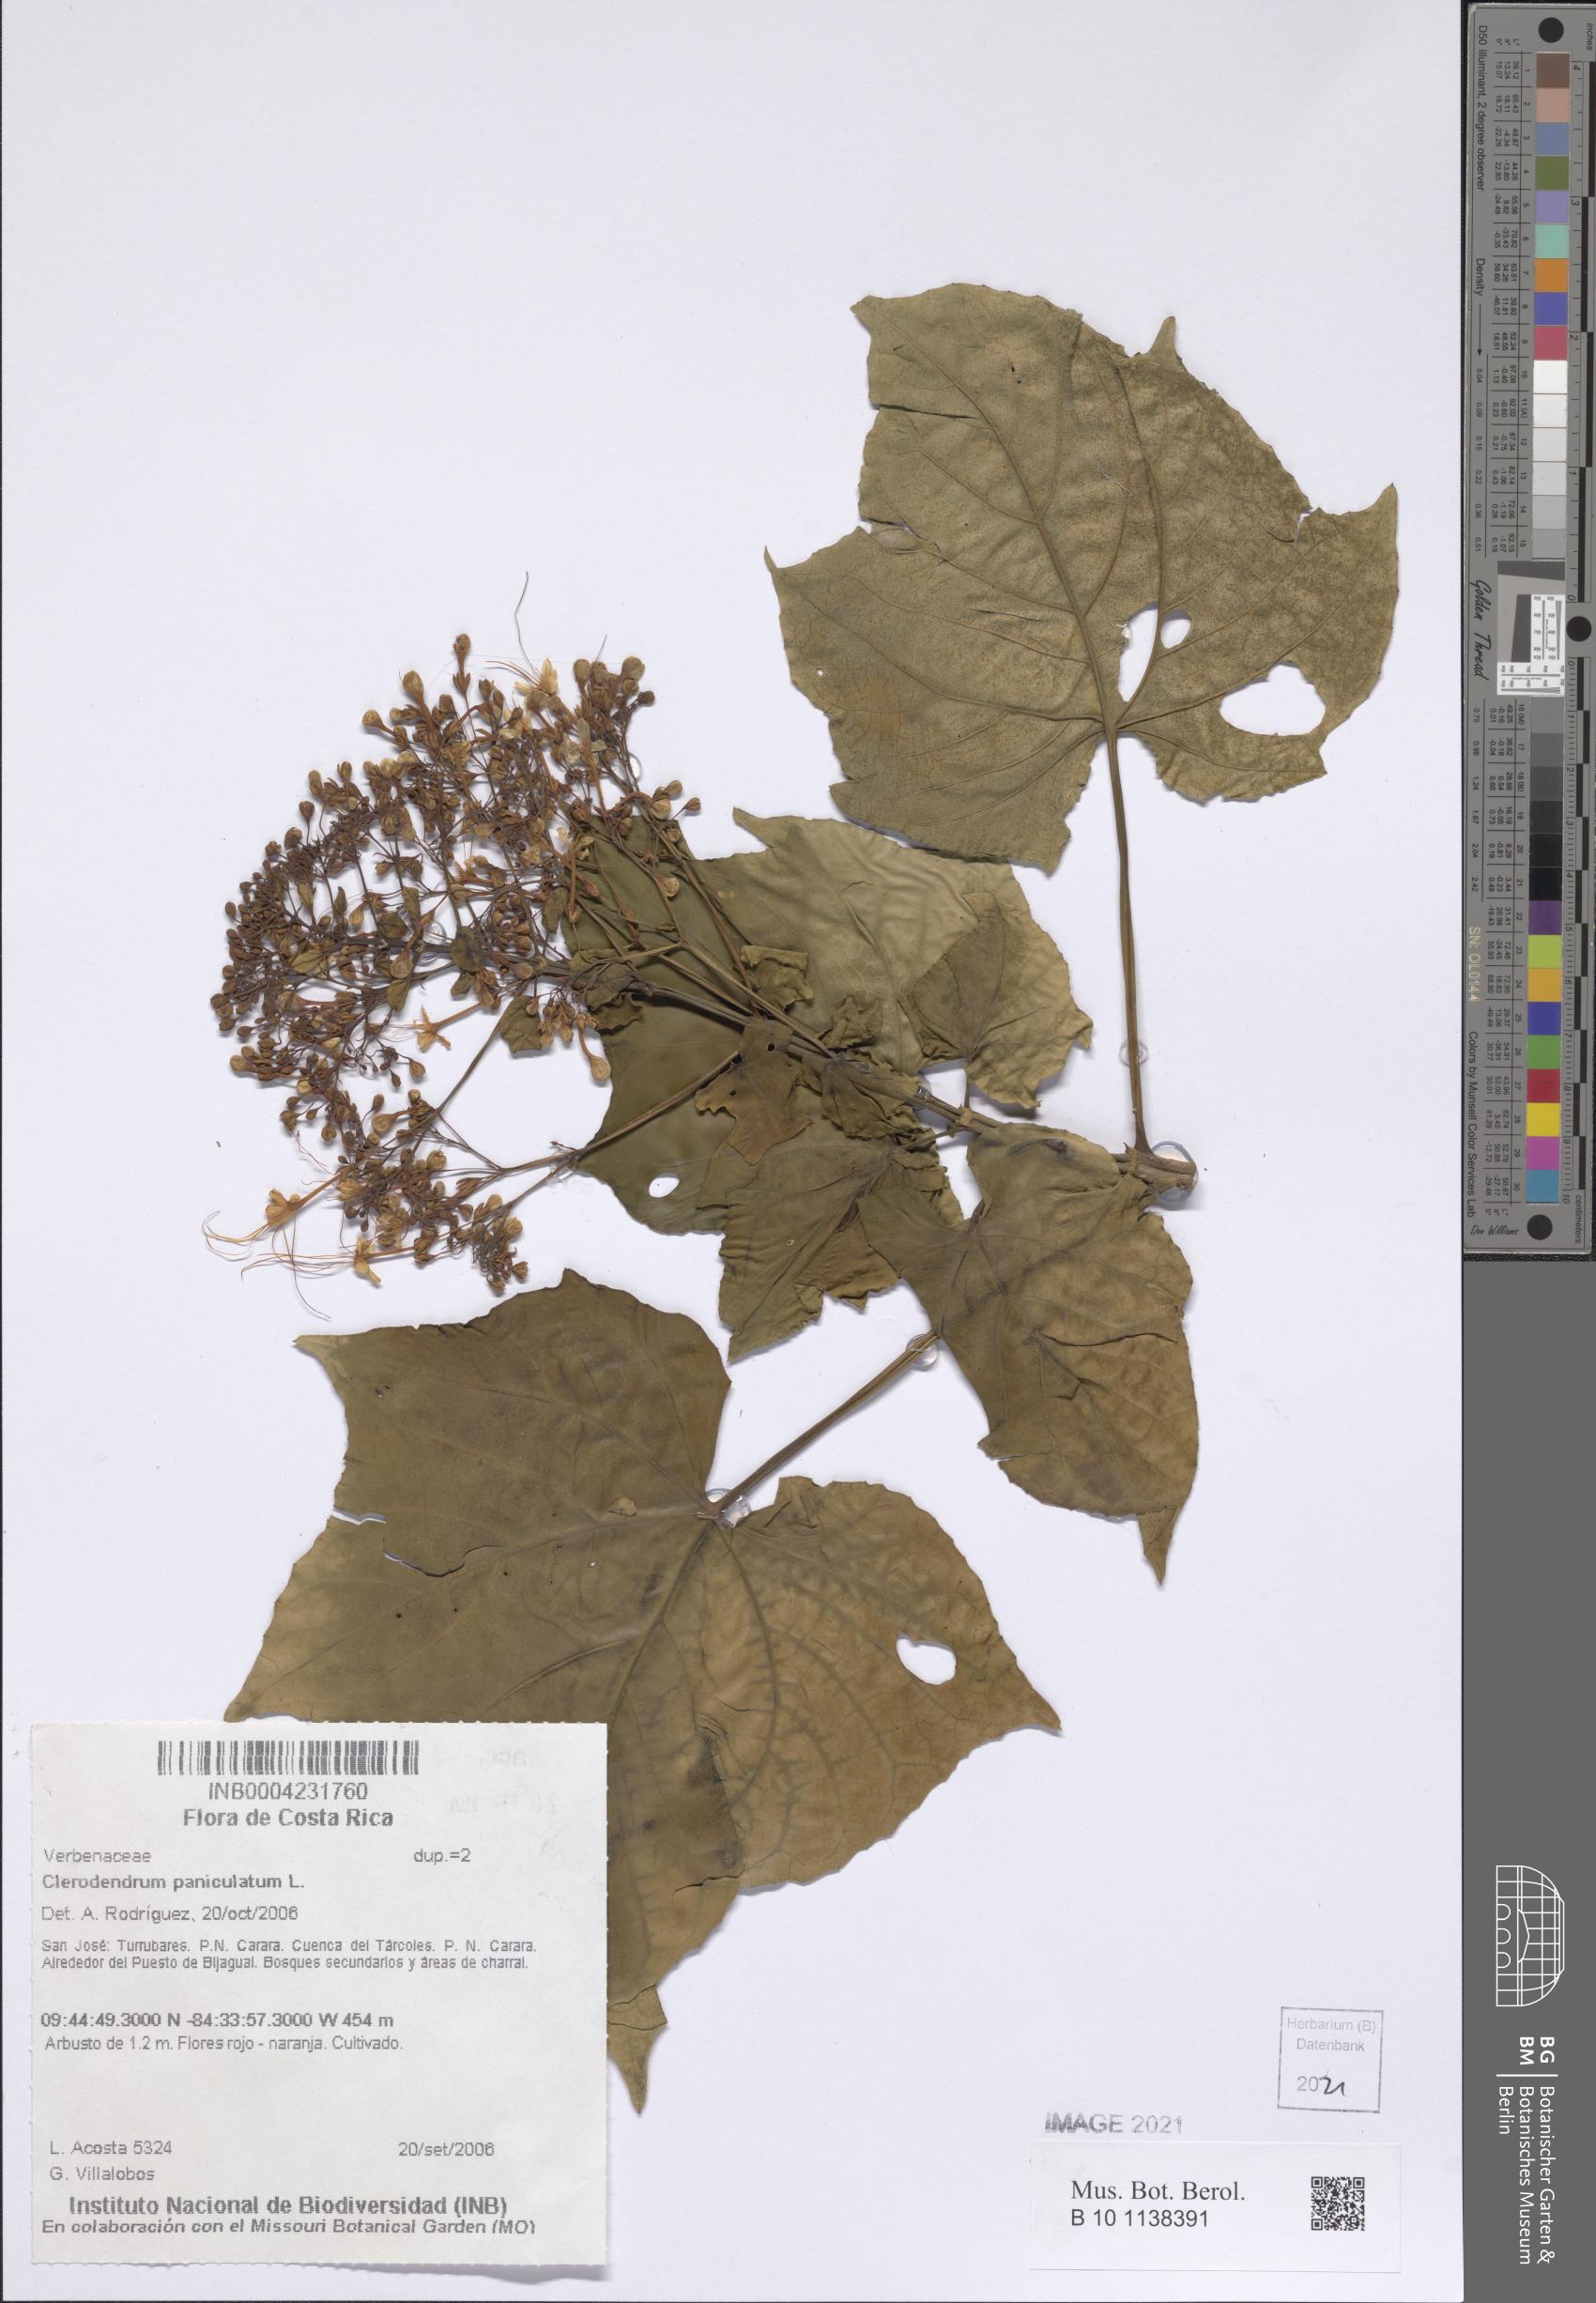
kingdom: Plantae
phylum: Tracheophyta
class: Magnoliopsida
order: Lamiales
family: Lamiaceae
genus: Clerodendrum
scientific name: Clerodendrum paniculatum
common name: Pagoda-flower
